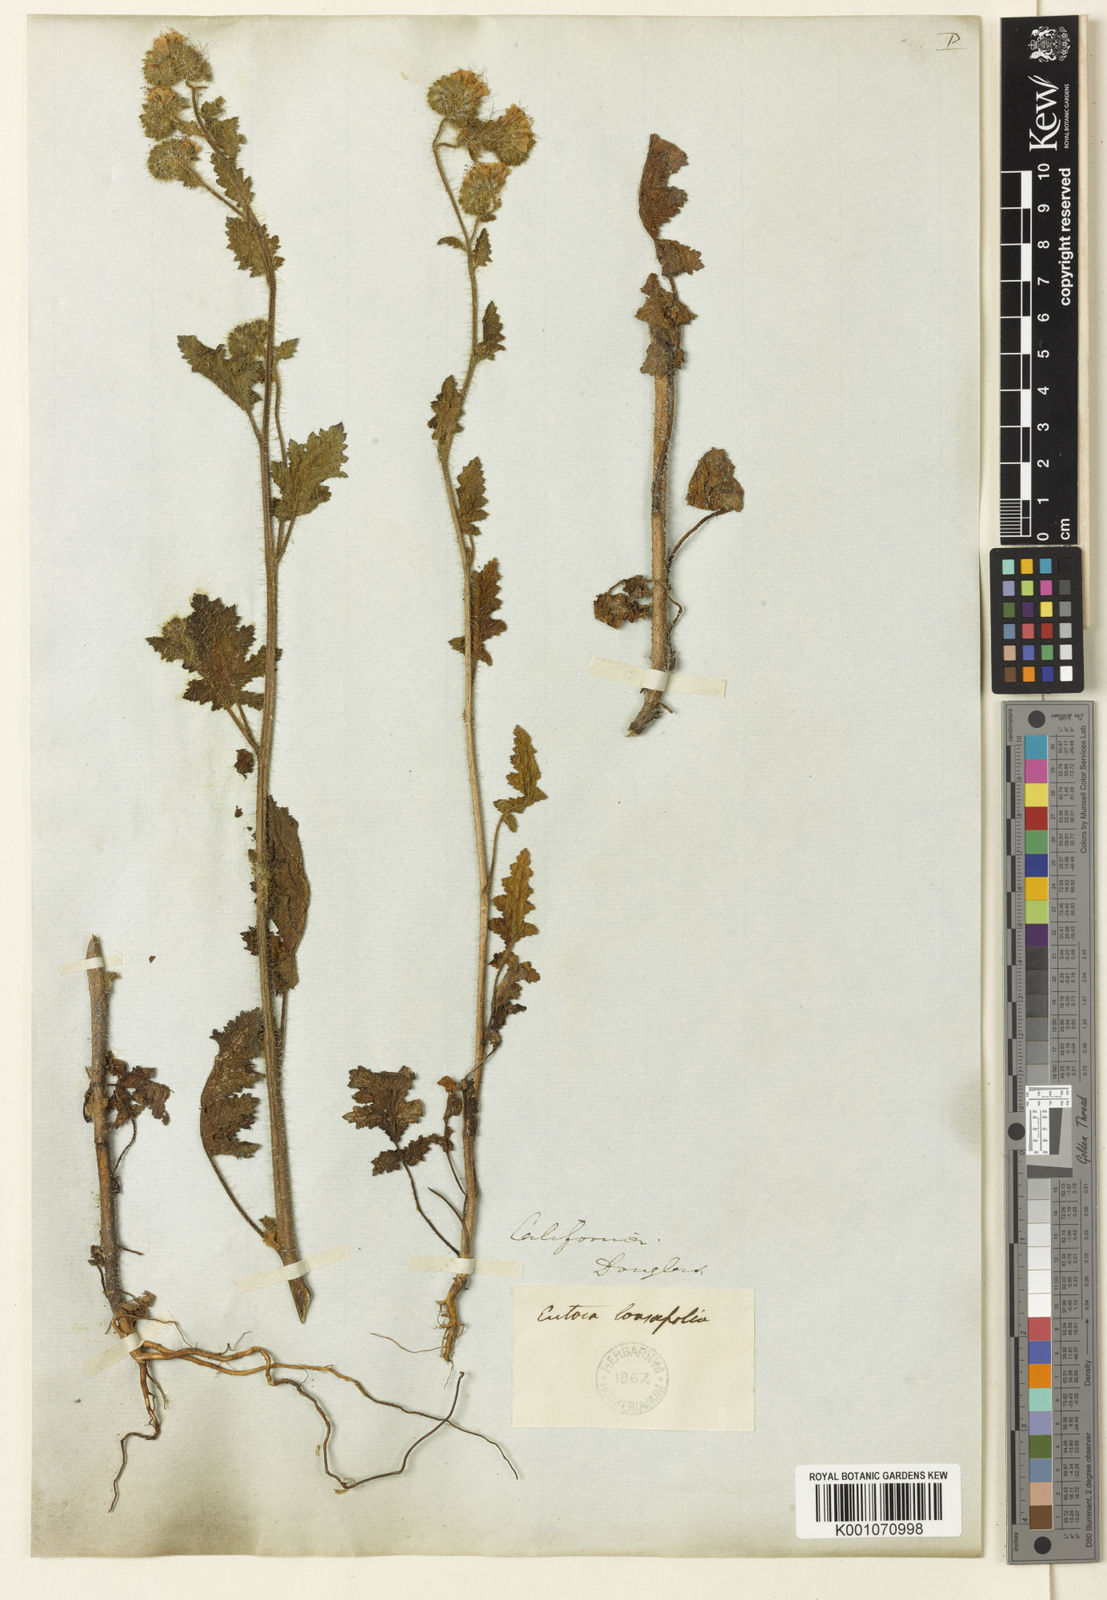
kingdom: Plantae
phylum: Tracheophyta
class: Magnoliopsida
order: Boraginales
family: Hydrophyllaceae
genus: Phacelia
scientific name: Phacelia malvifolia
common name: Mallow-leaf phacelia
